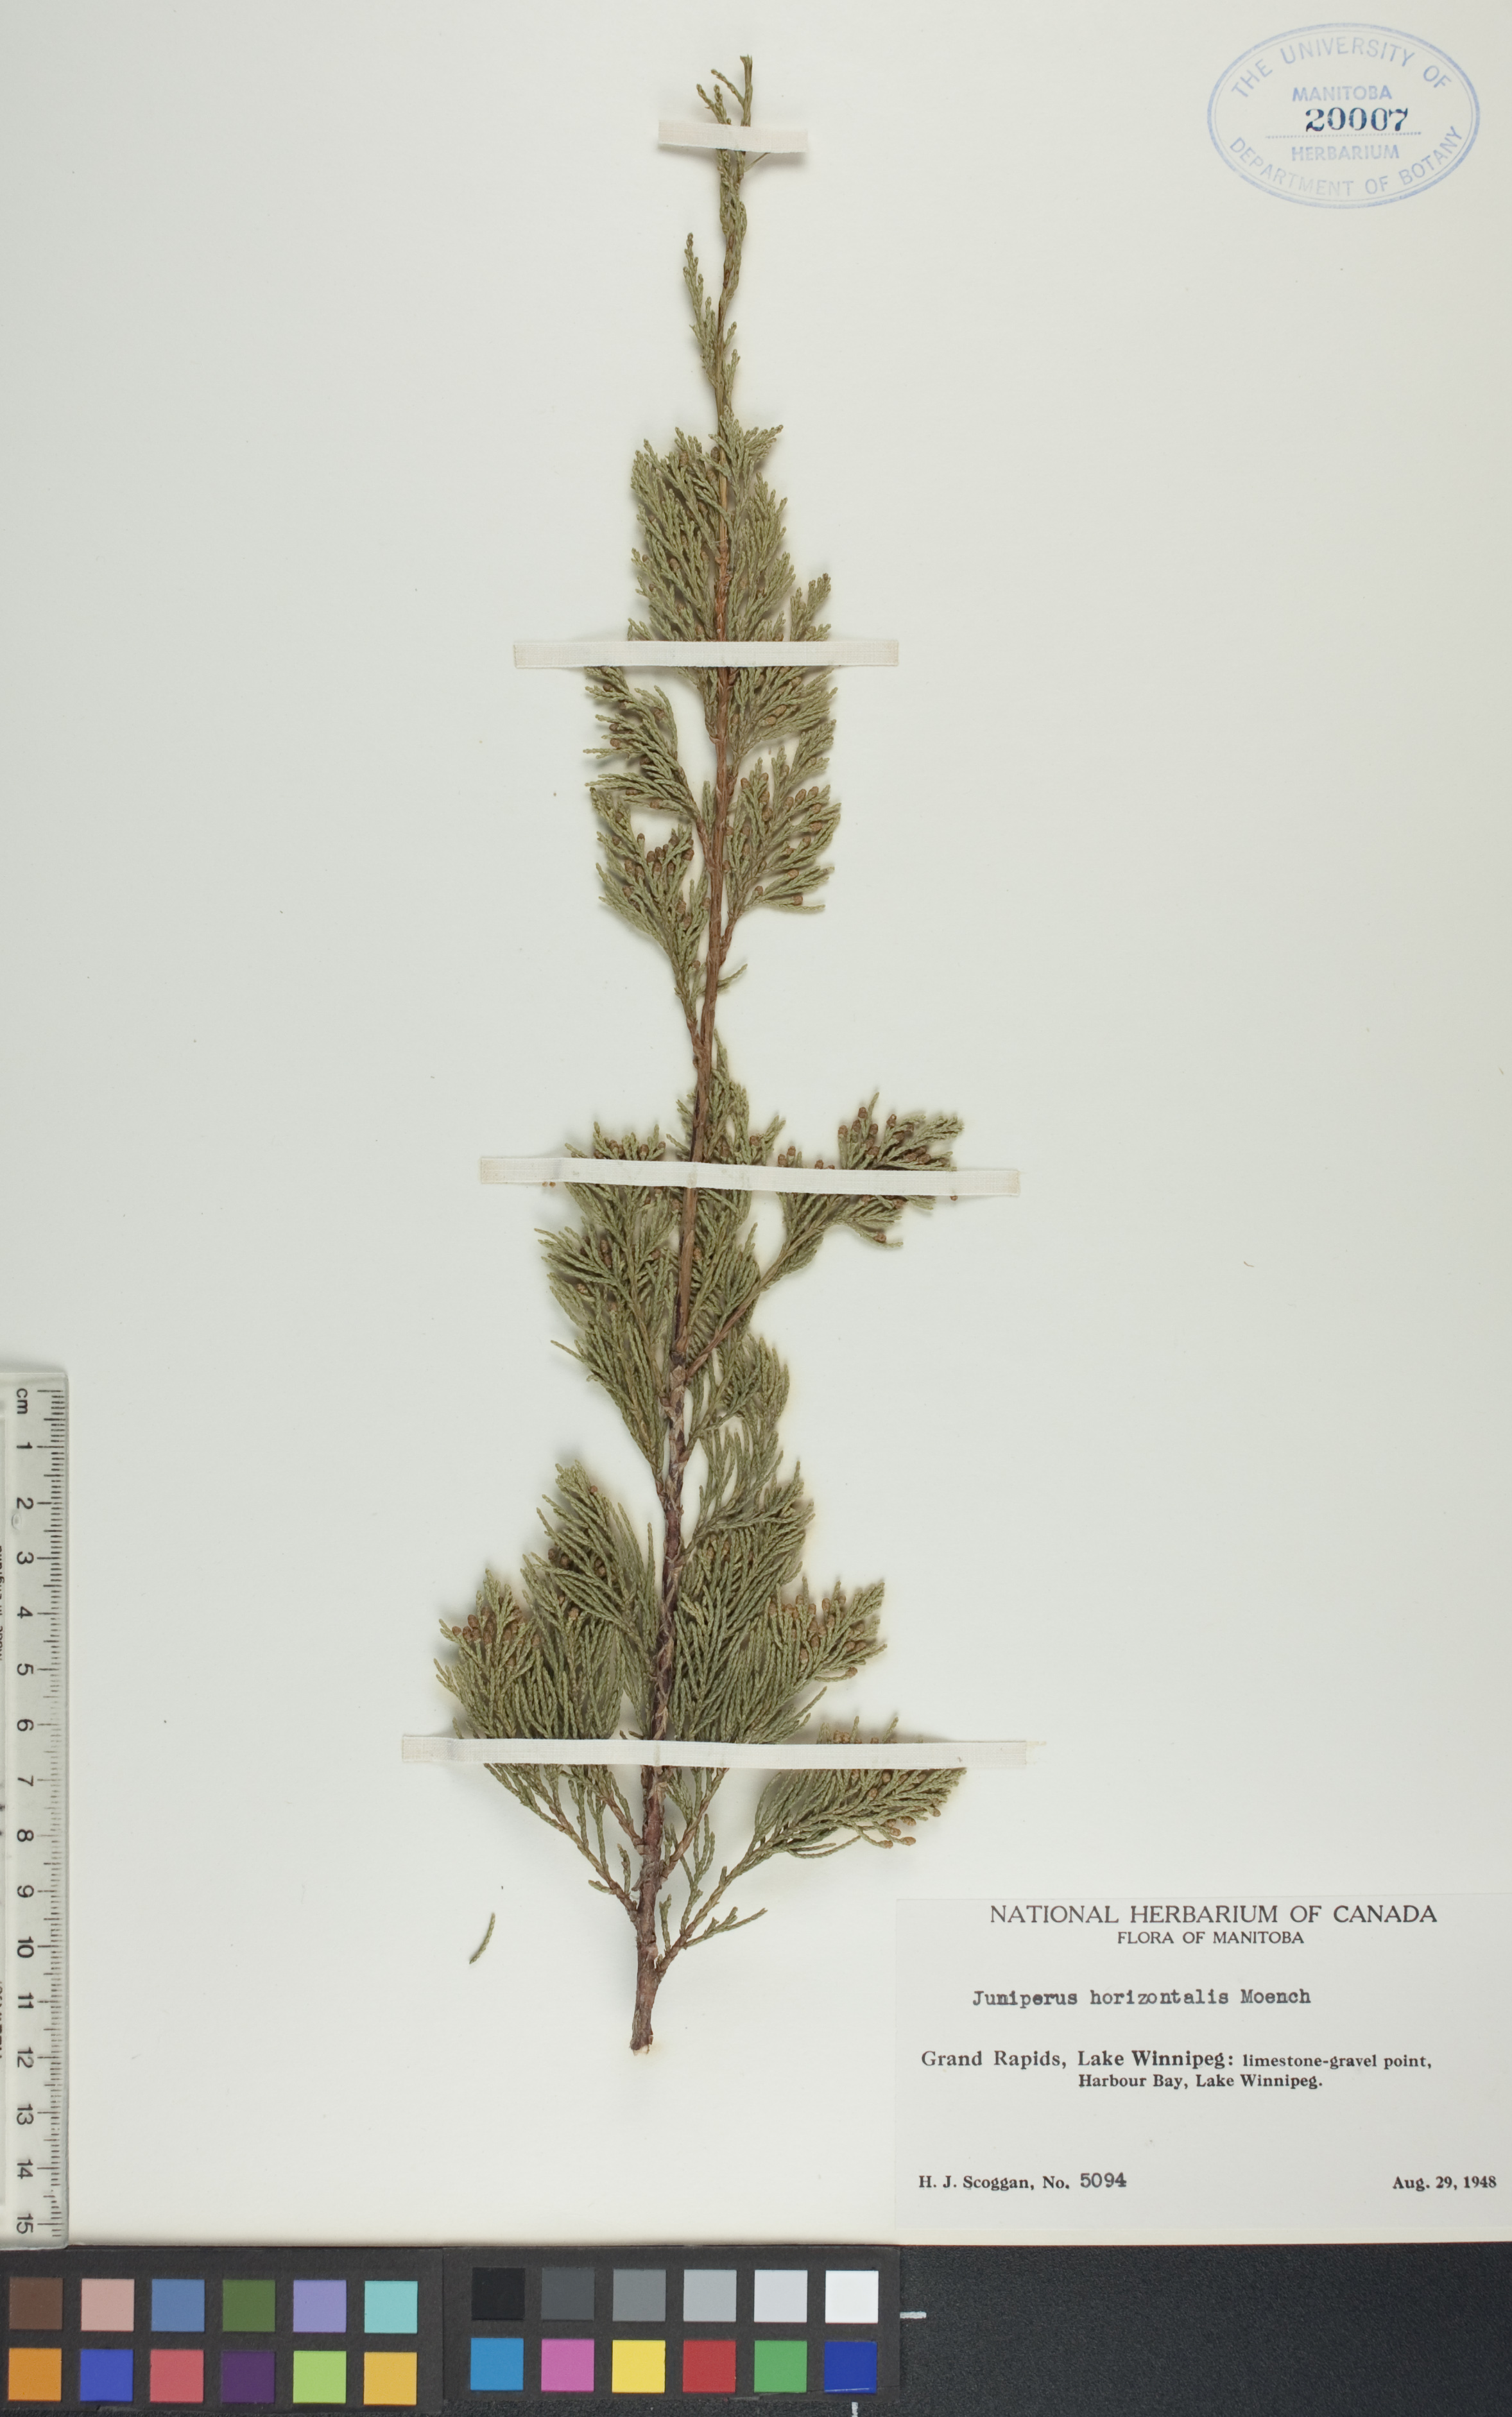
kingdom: Plantae
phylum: Tracheophyta
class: Pinopsida
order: Pinales
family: Cupressaceae
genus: Juniperus
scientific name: Juniperus horizontalis
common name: Creeping juniper
